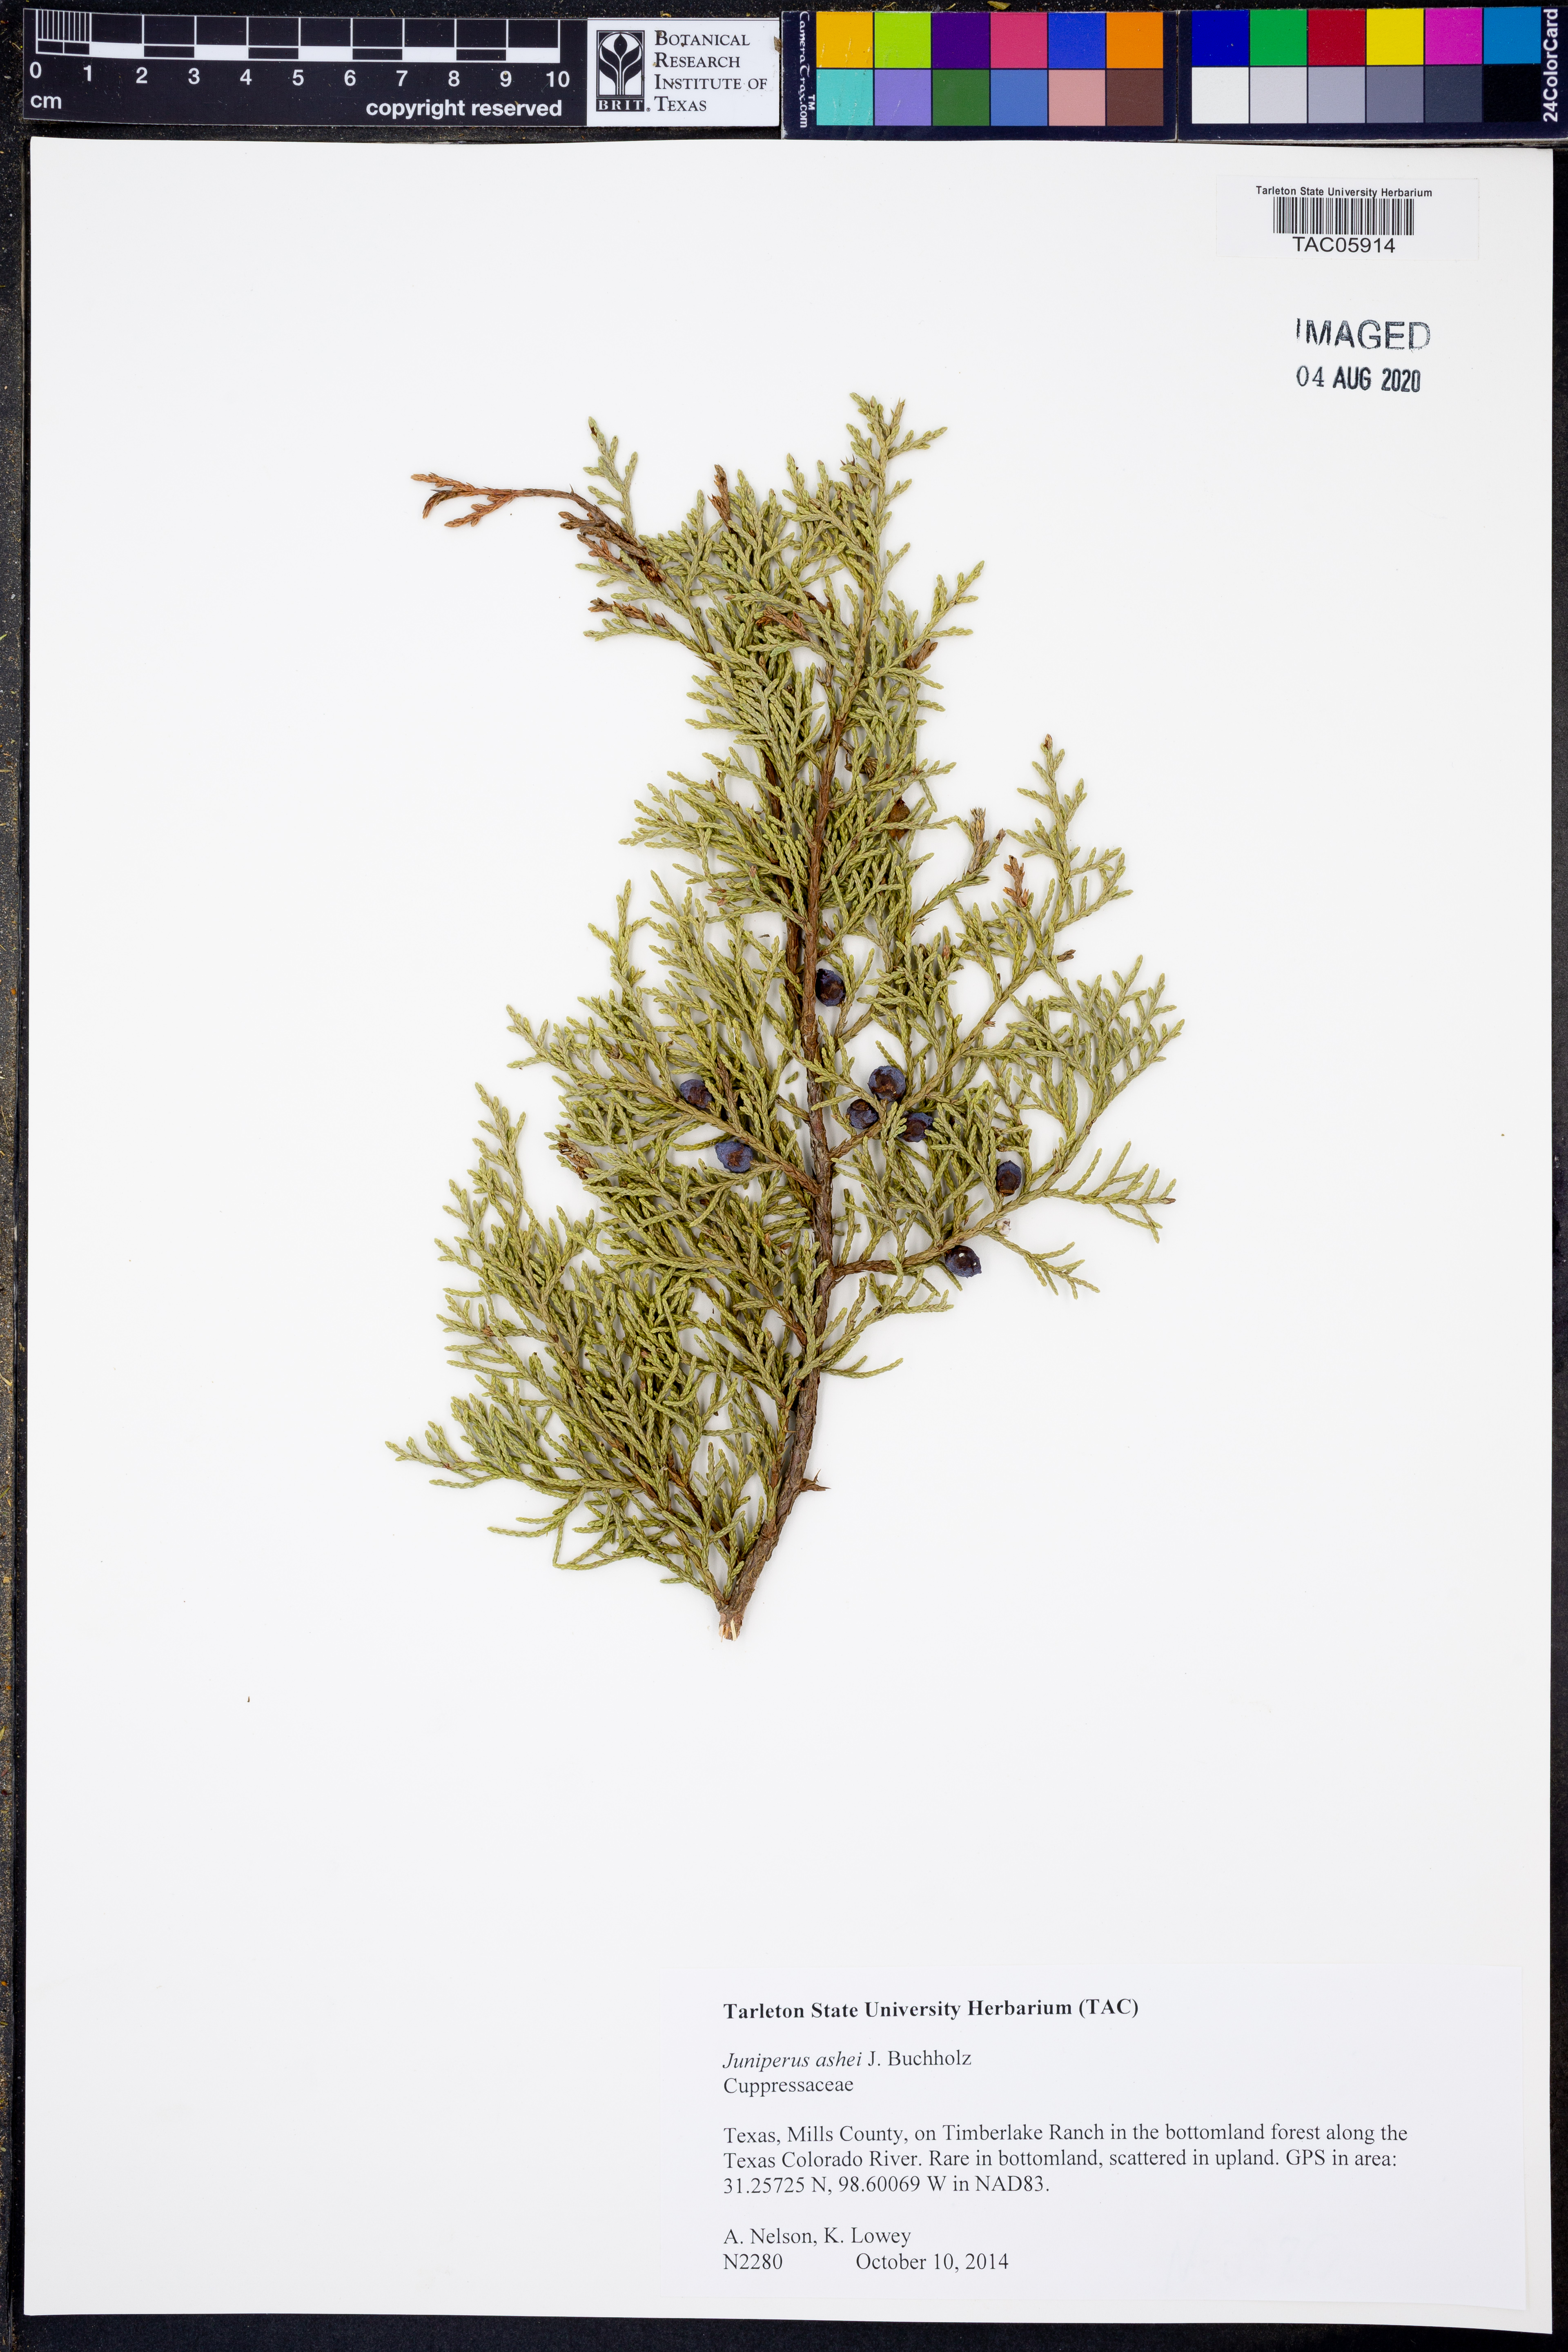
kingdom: Plantae
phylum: Tracheophyta
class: Pinopsida
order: Pinales
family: Cupressaceae
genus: Juniperus
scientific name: Juniperus ashei
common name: Mexican juniper
